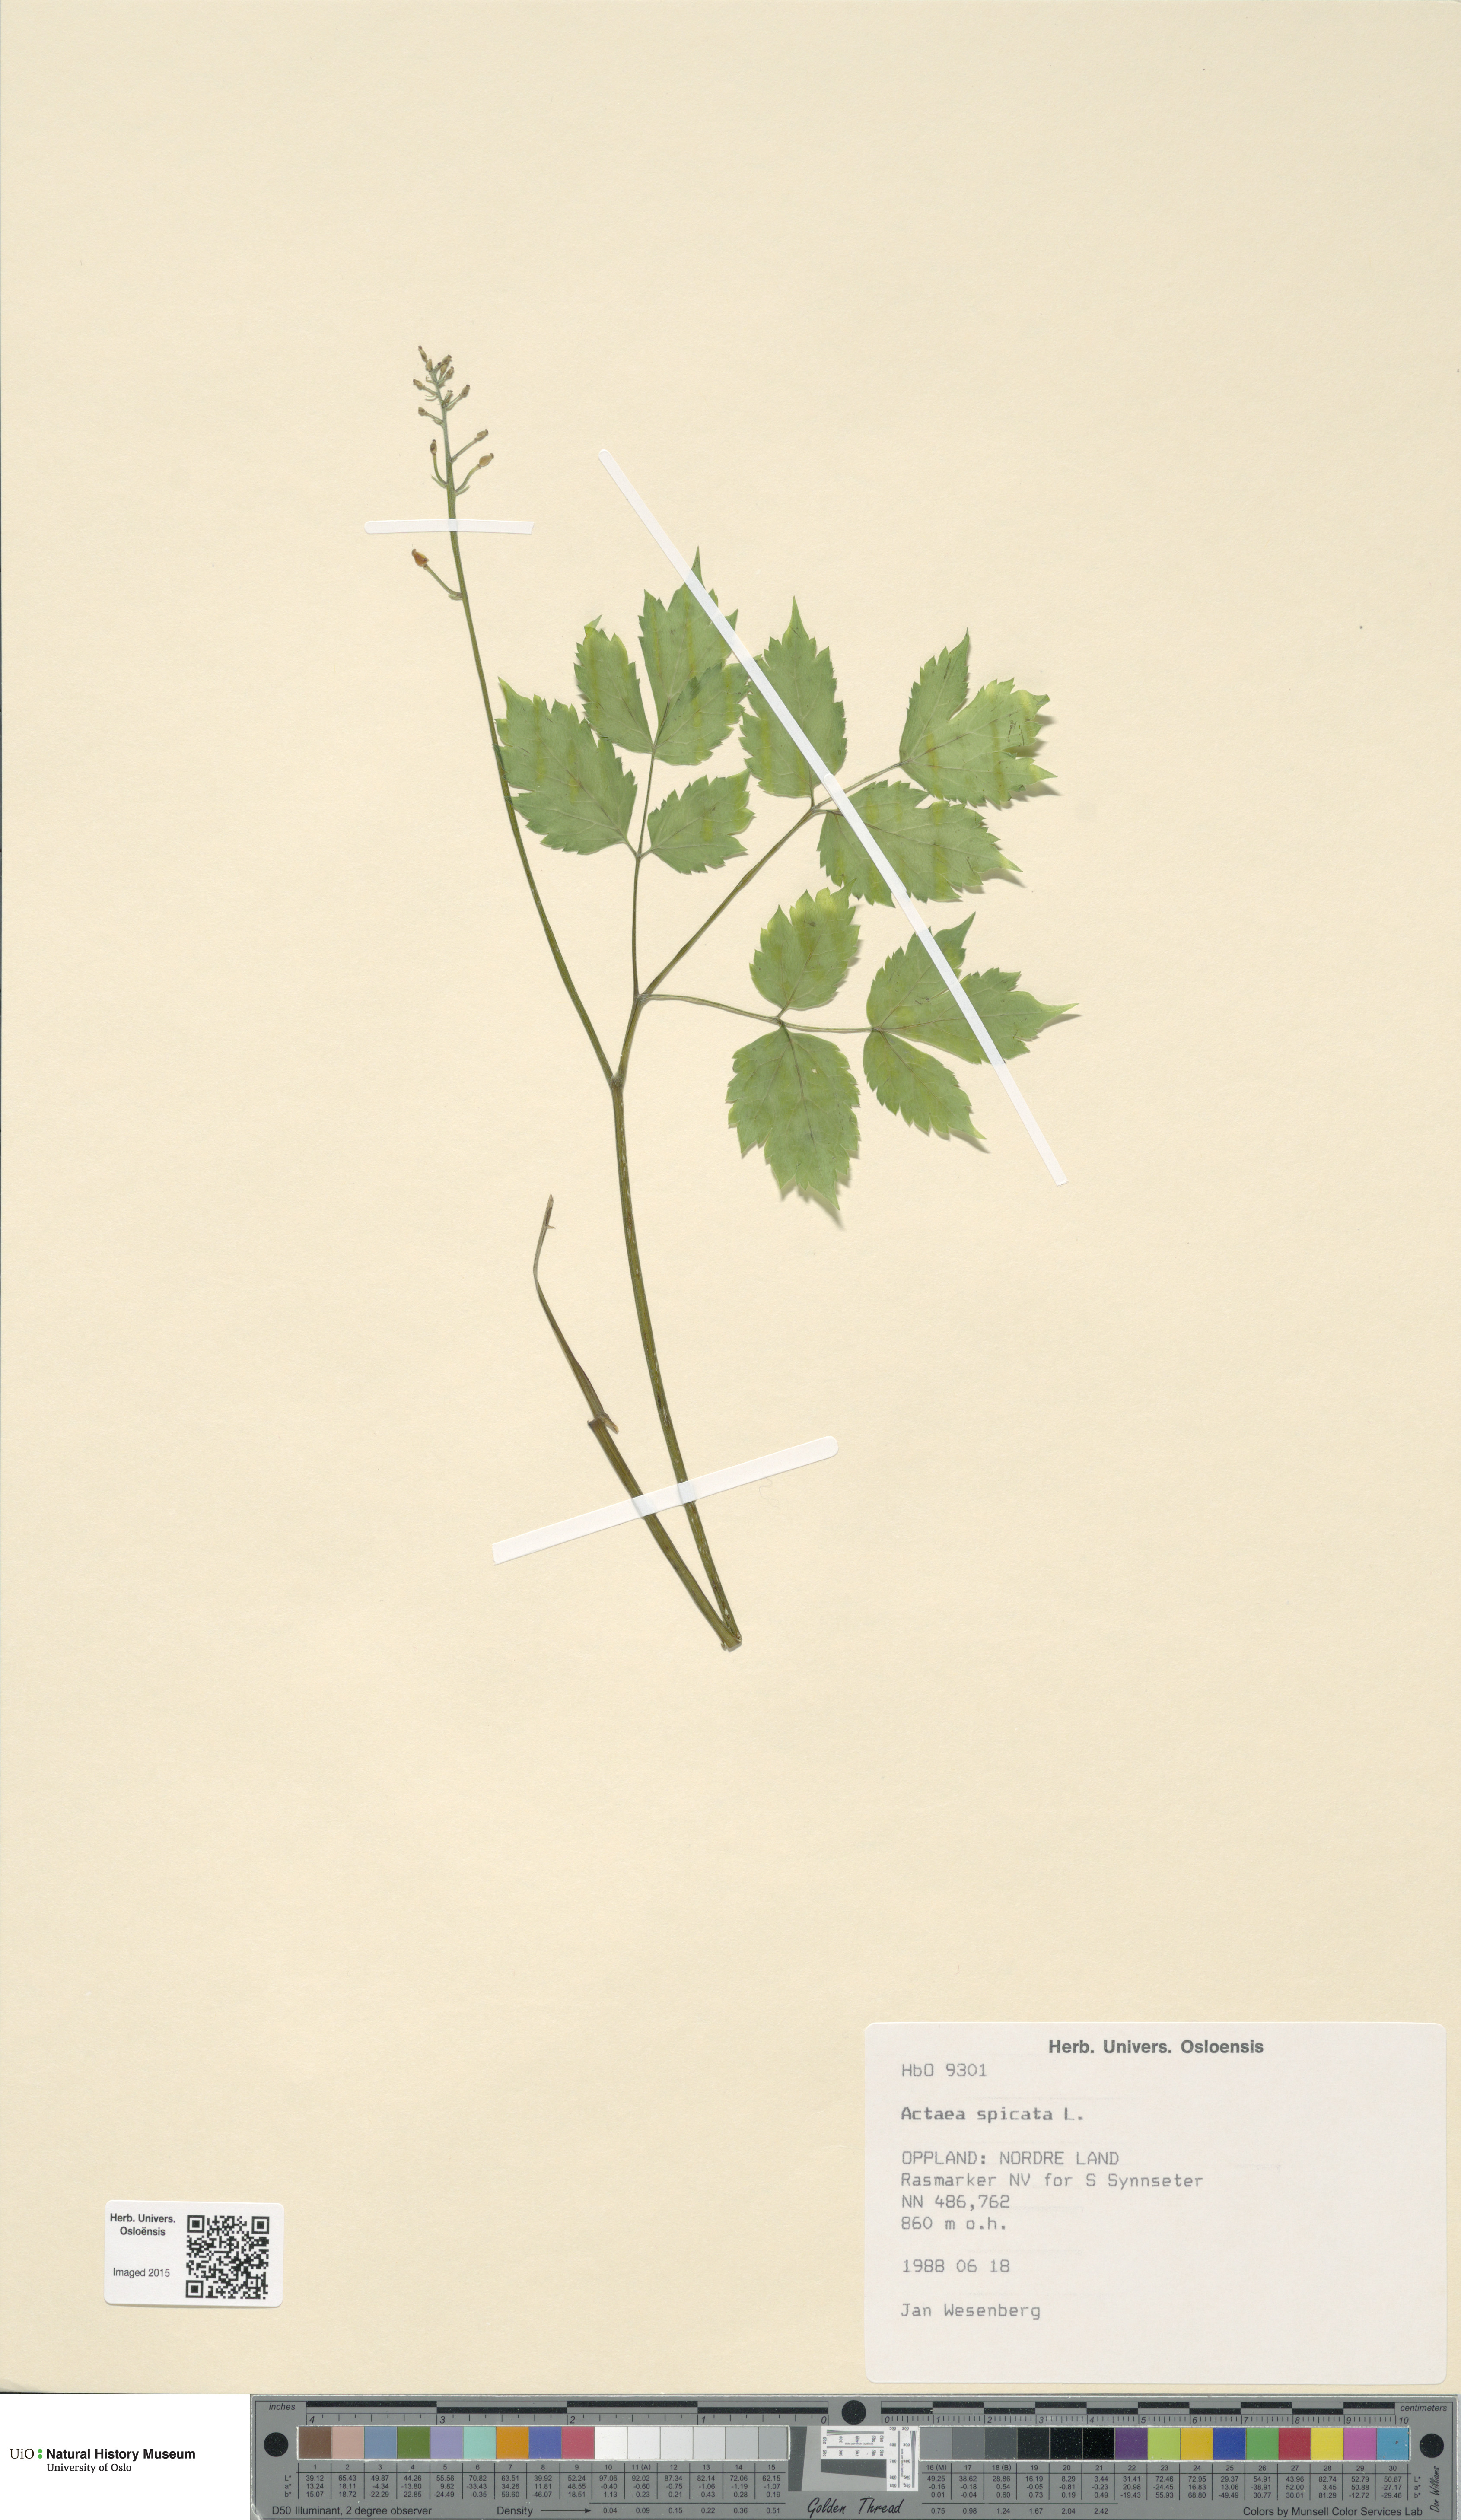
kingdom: Plantae
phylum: Tracheophyta
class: Magnoliopsida
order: Ranunculales
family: Ranunculaceae
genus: Actaea
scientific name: Actaea spicata
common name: Baneberry
